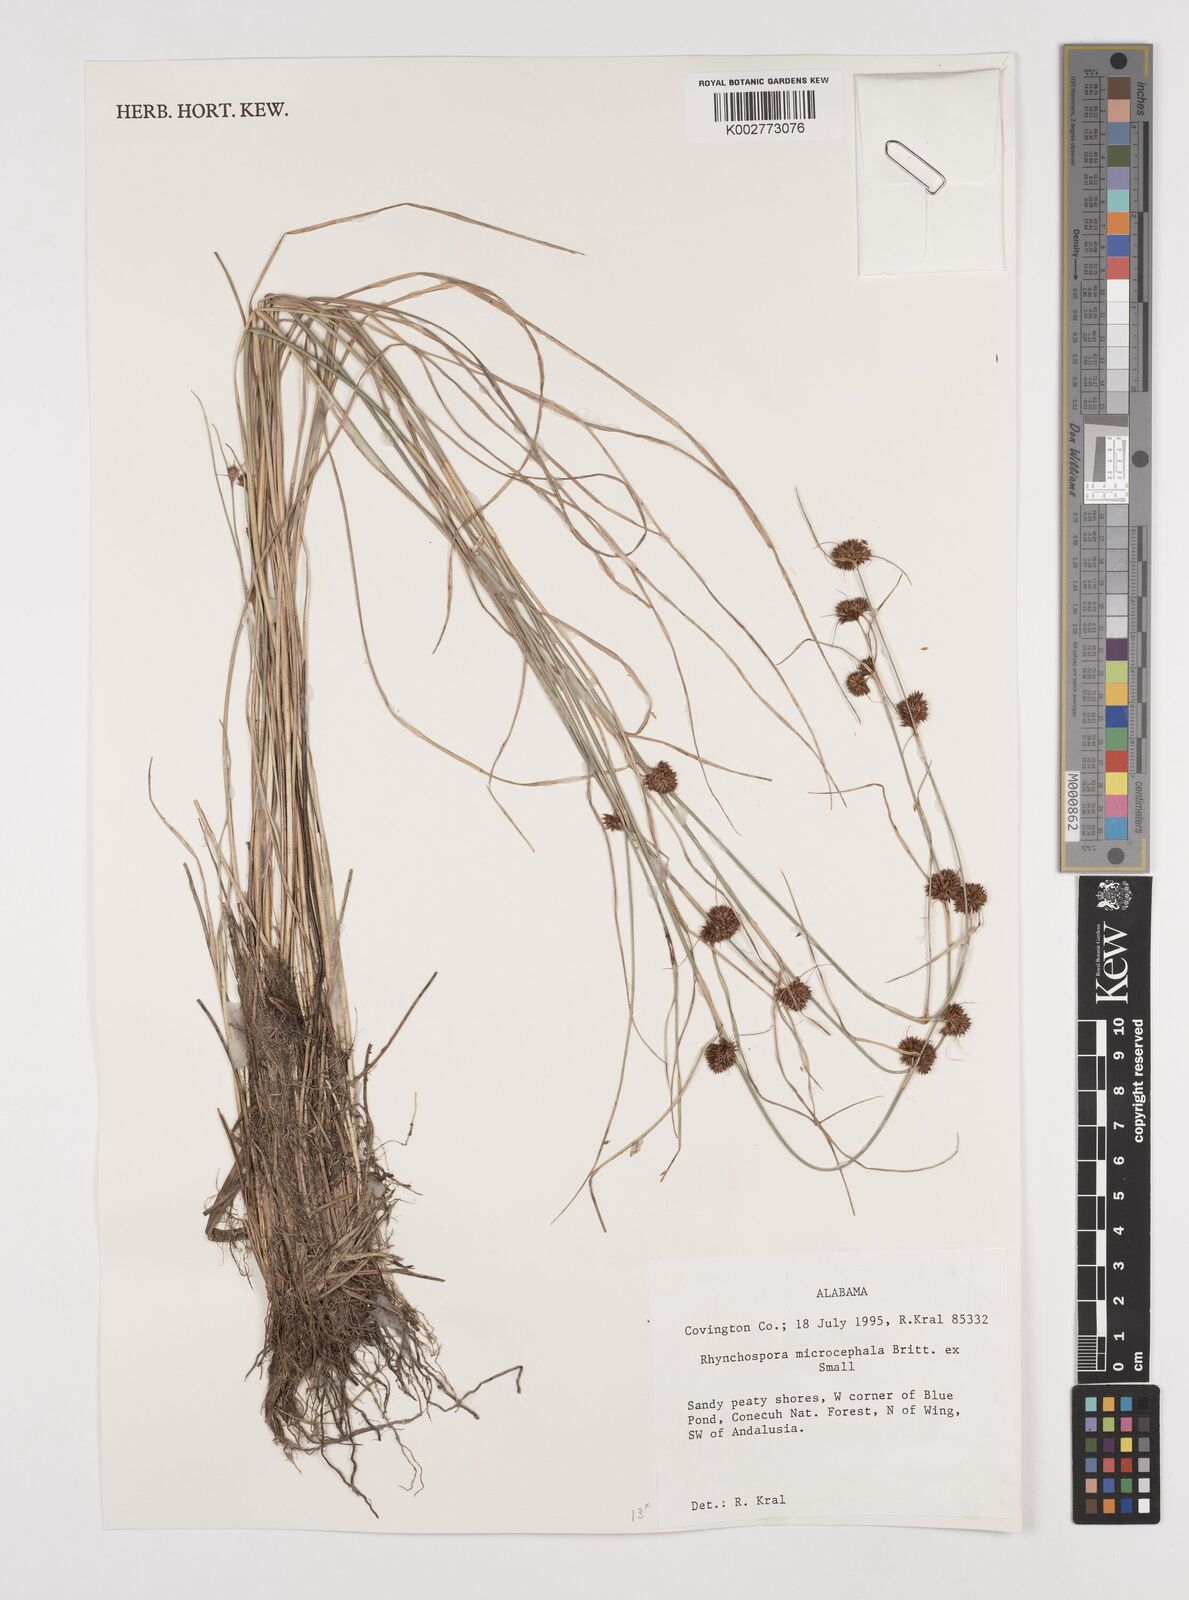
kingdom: Plantae
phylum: Tracheophyta
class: Liliopsida
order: Poales
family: Cyperaceae
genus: Rhynchospora
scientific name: Rhynchospora microcephala
